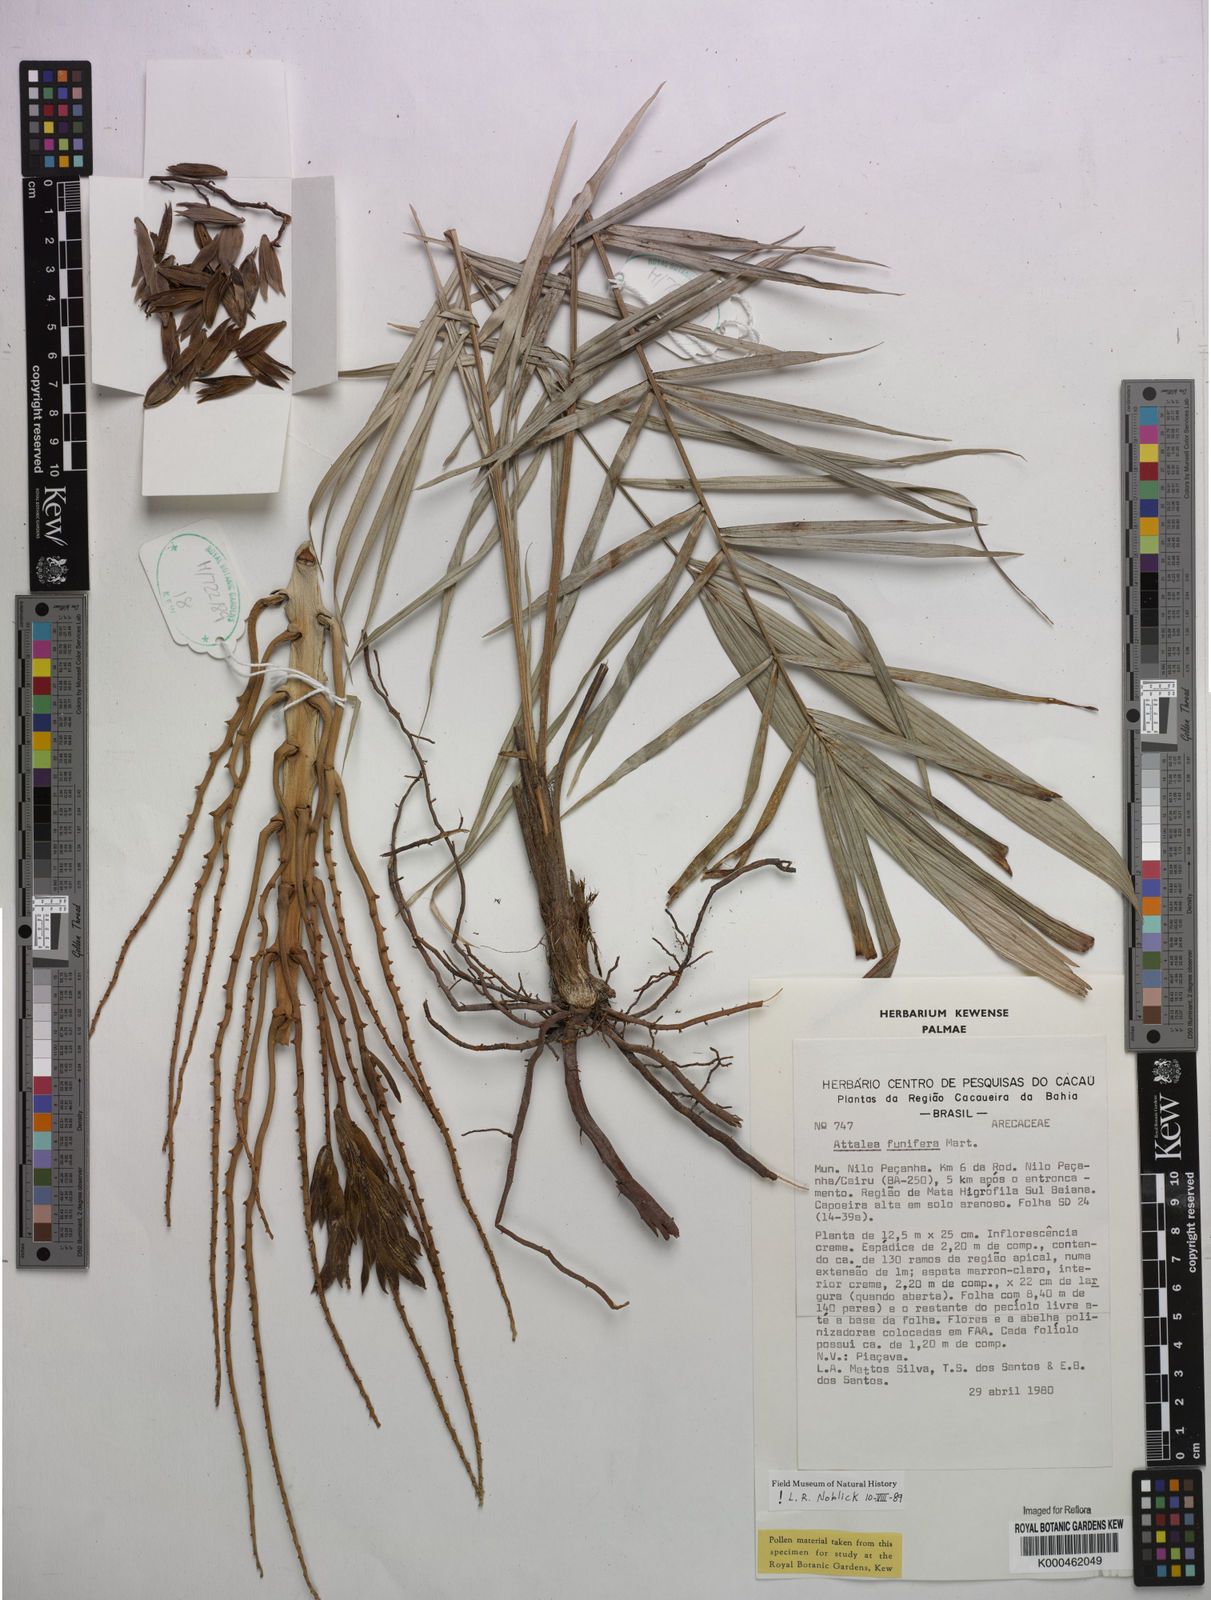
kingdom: Plantae
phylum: Tracheophyta
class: Liliopsida
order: Arecales
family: Arecaceae
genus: Attalea
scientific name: Attalea funifera
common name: Piassava palm
